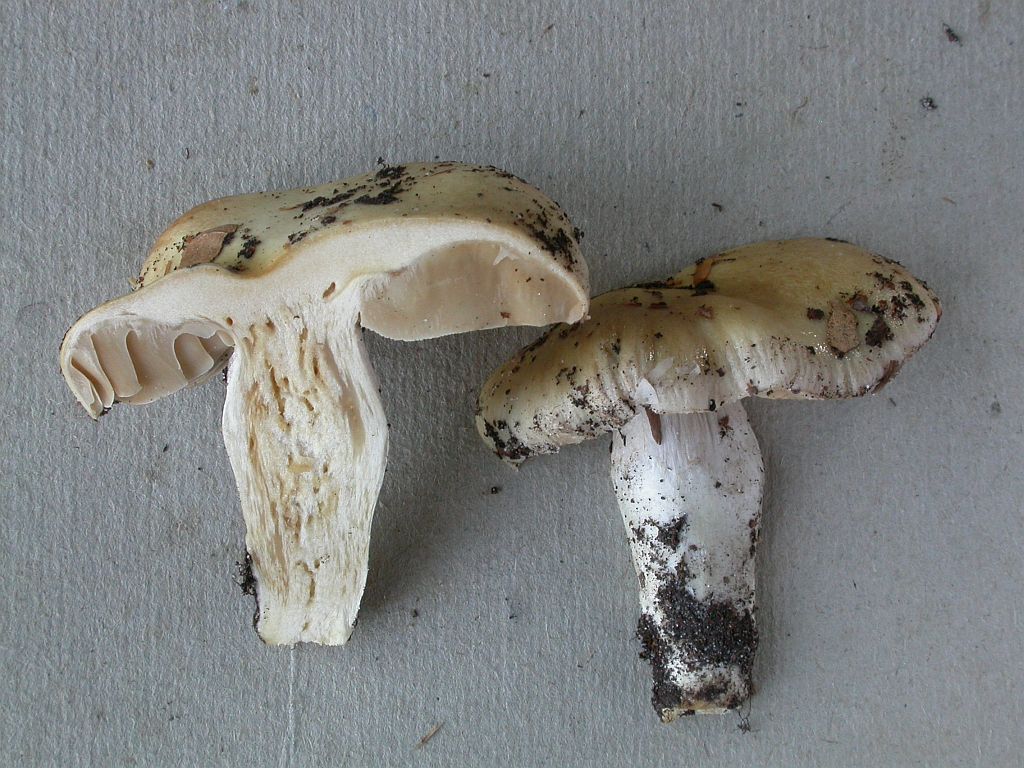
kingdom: Fungi
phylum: Basidiomycota
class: Agaricomycetes
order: Agaricales
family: Cortinariaceae
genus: Cortinarius
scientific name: Cortinarius elatior
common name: høj slørhat
